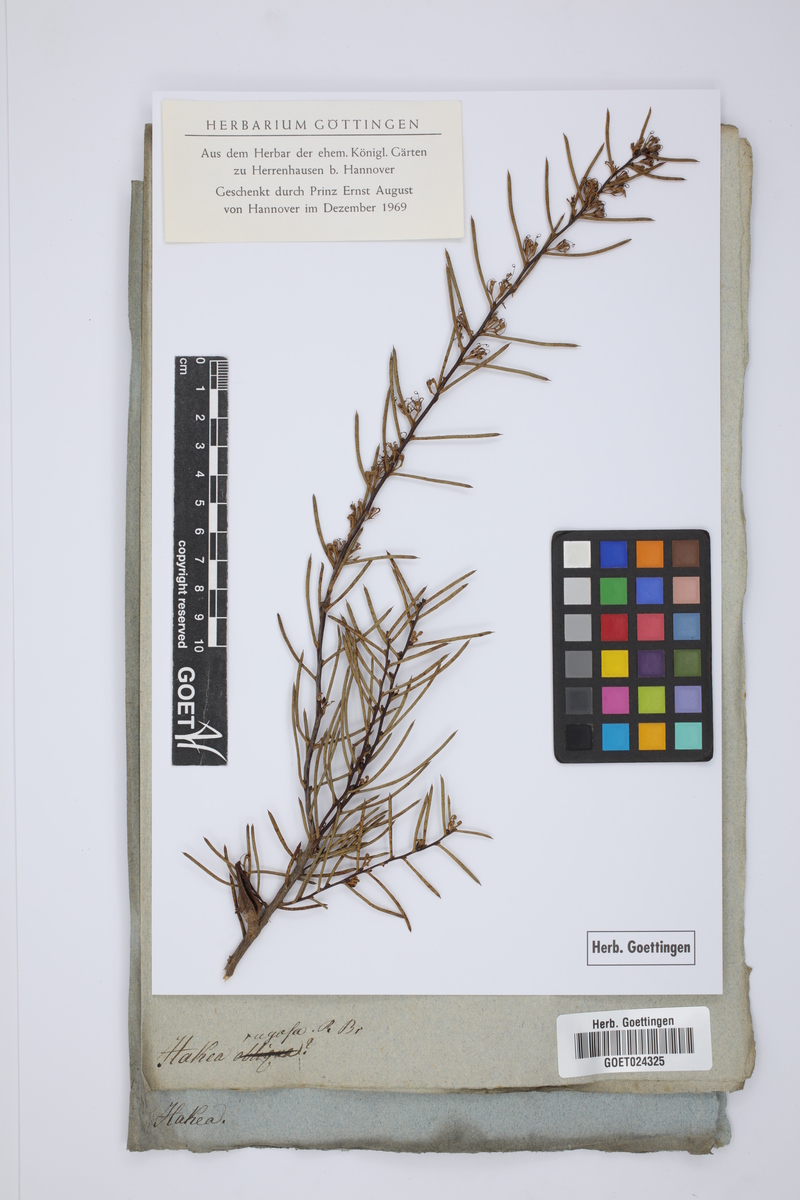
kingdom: Plantae
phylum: Tracheophyta
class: Magnoliopsida
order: Proteales
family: Proteaceae
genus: Hakea
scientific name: Hakea rugosa
